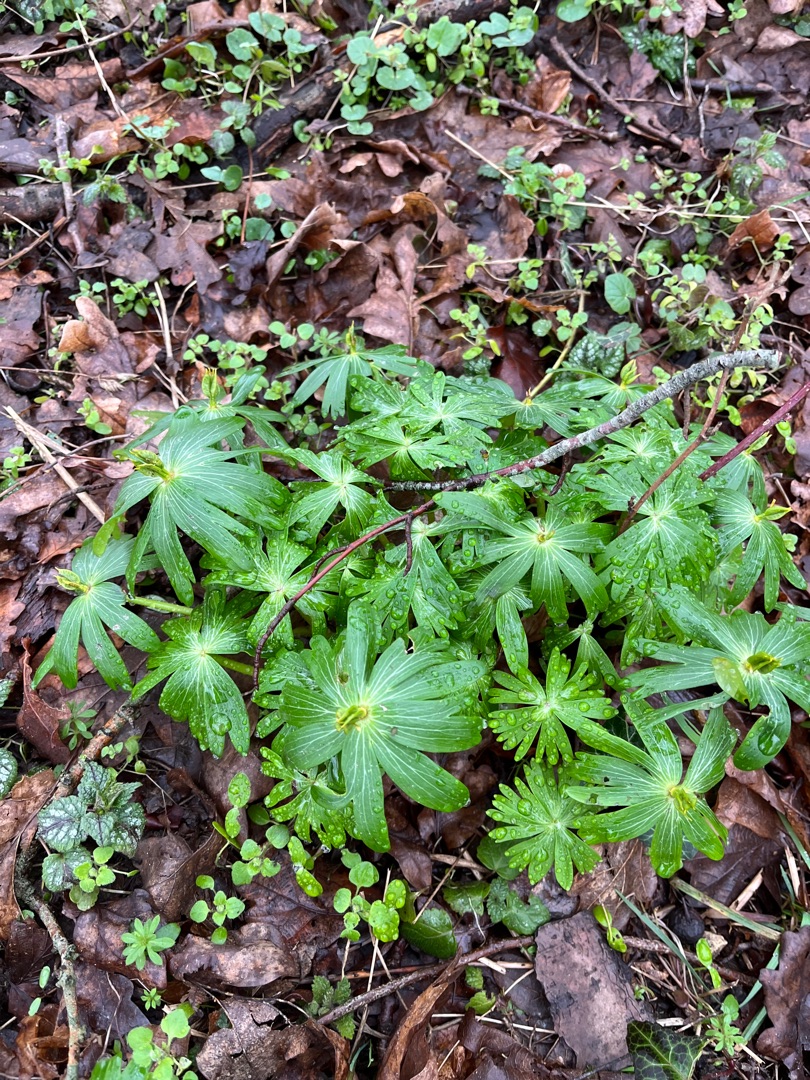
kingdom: Plantae
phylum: Tracheophyta
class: Magnoliopsida
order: Ranunculales
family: Ranunculaceae
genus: Eranthis
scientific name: Eranthis hyemalis
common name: Erantis
